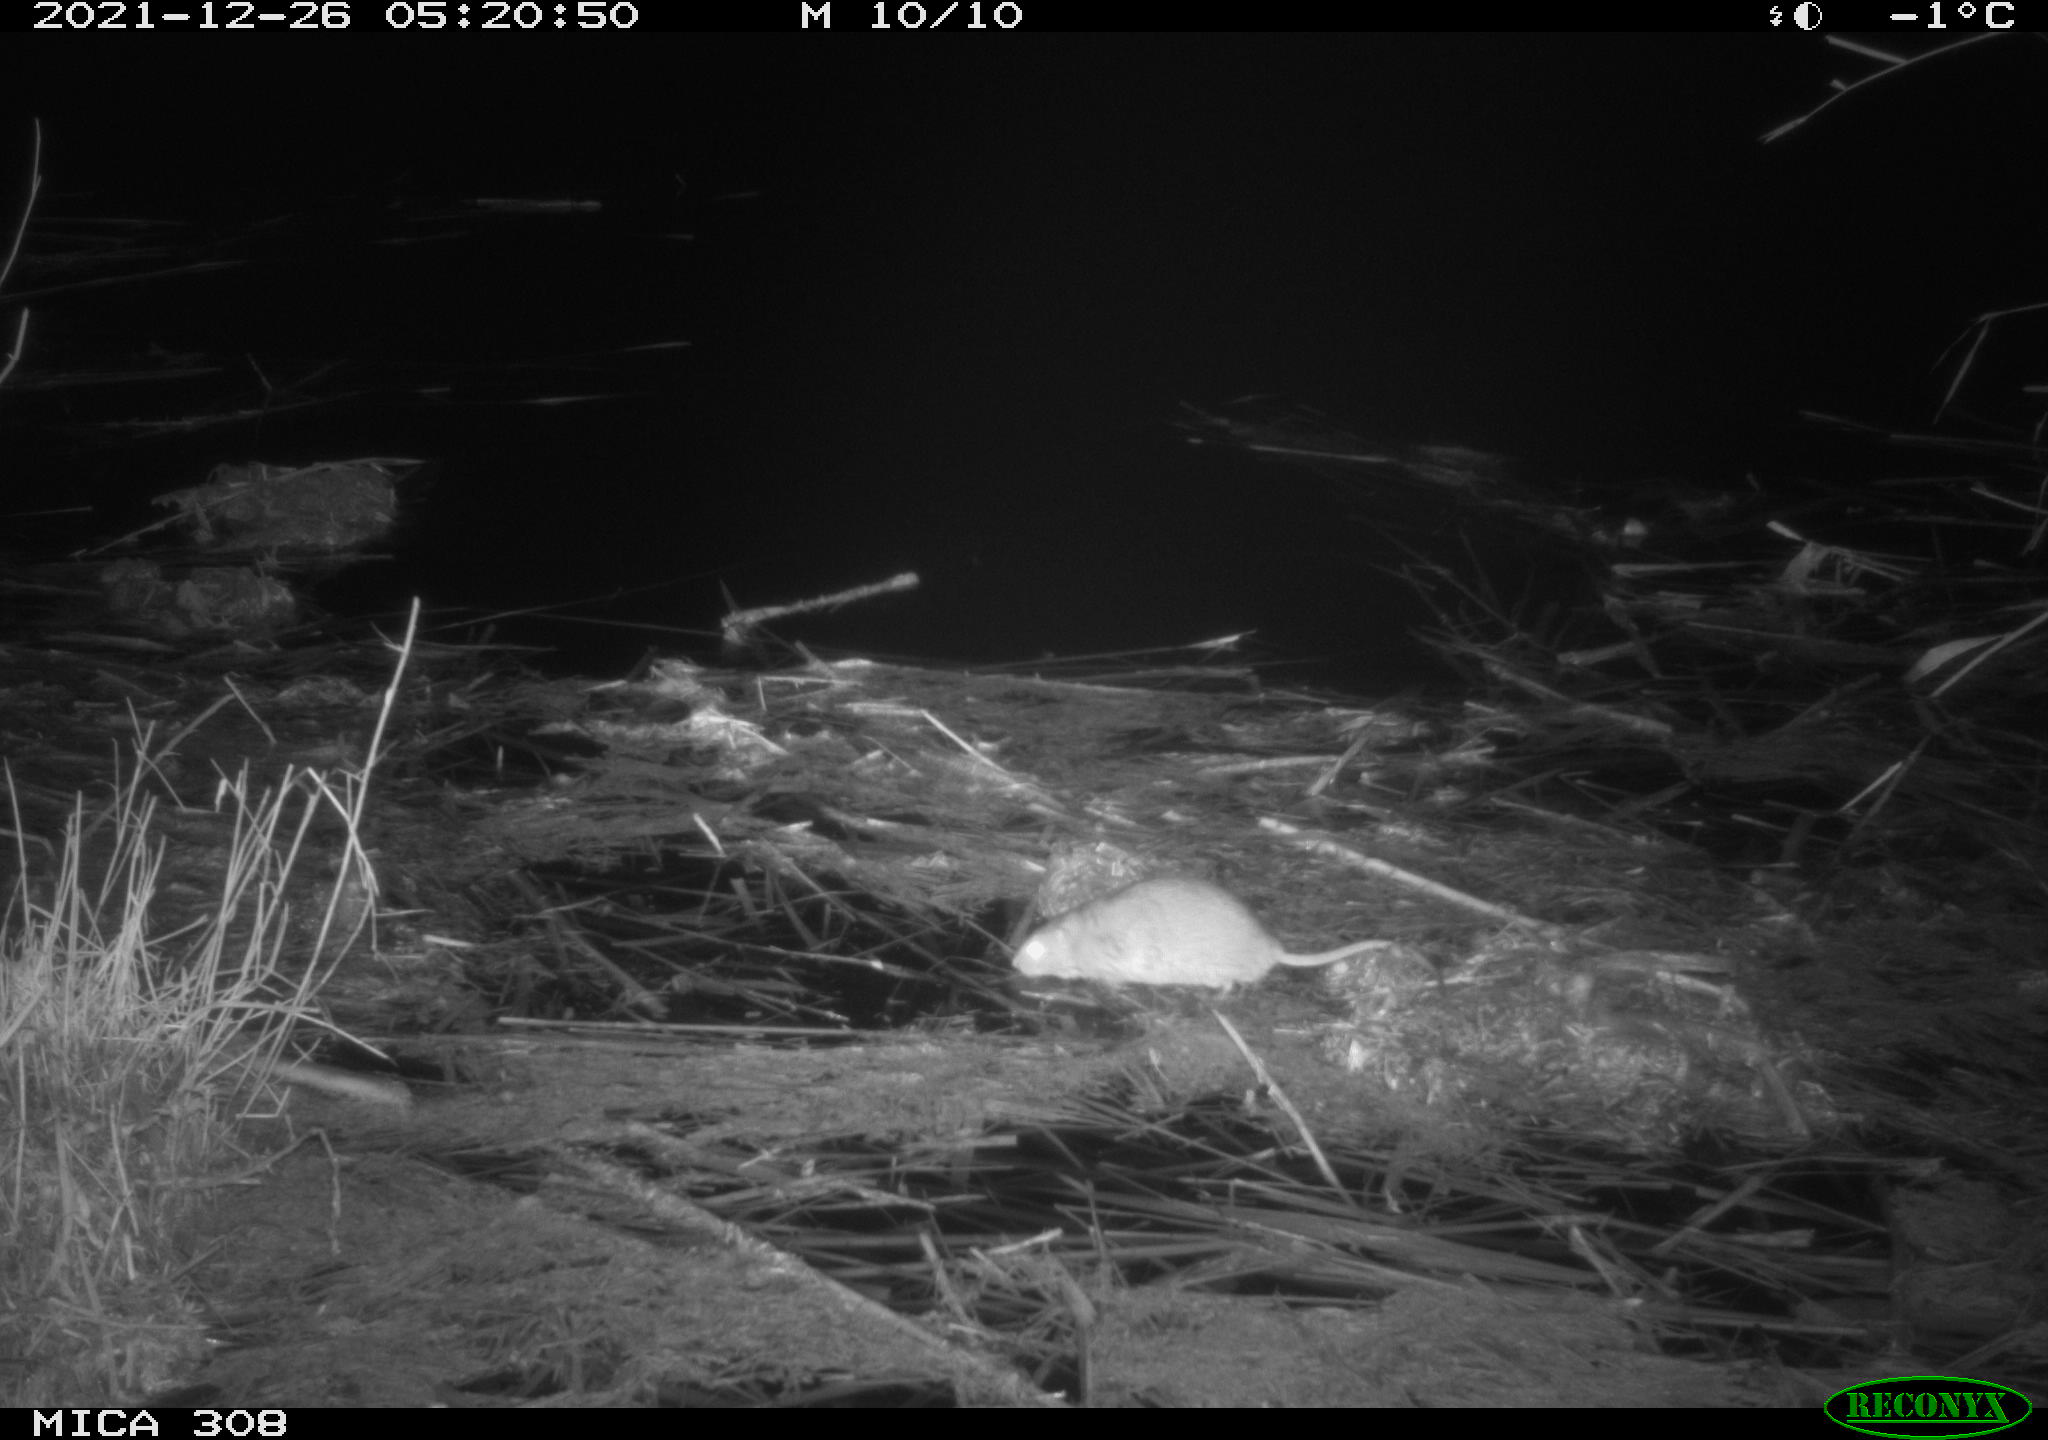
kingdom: Animalia
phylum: Chordata
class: Mammalia
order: Rodentia
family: Muridae
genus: Rattus
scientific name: Rattus norvegicus
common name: Brown rat
